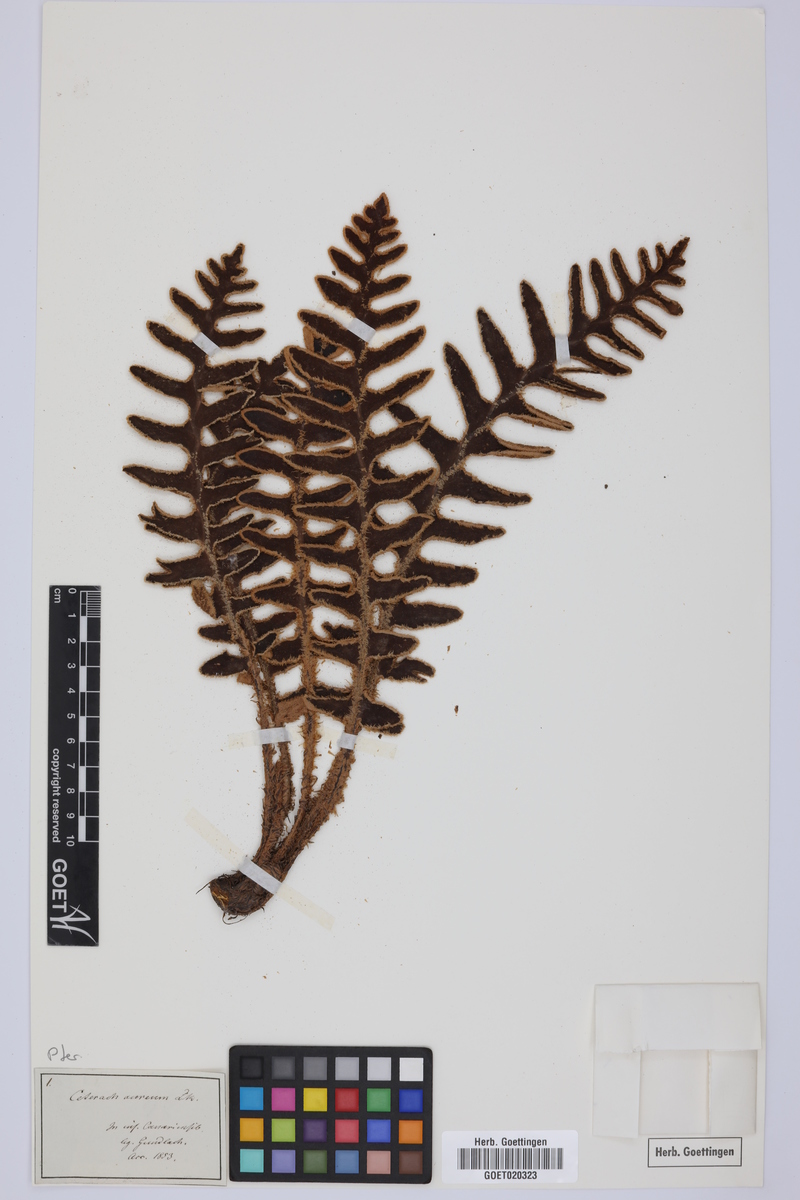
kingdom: Plantae
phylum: Tracheophyta
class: Polypodiopsida
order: Polypodiales
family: Aspleniaceae
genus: Asplenium
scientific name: Asplenium aureum
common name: Golden rustyback fern
